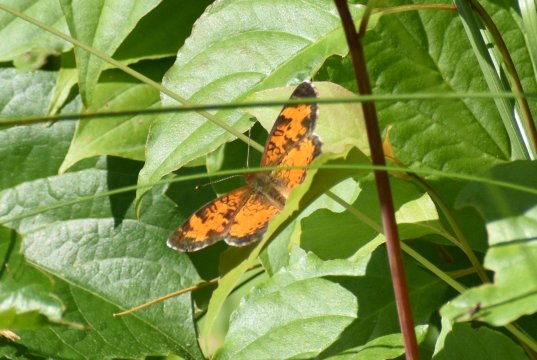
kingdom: Animalia
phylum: Arthropoda
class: Insecta
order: Lepidoptera
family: Nymphalidae
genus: Phyciodes
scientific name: Phyciodes tharos
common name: Northern Crescent
